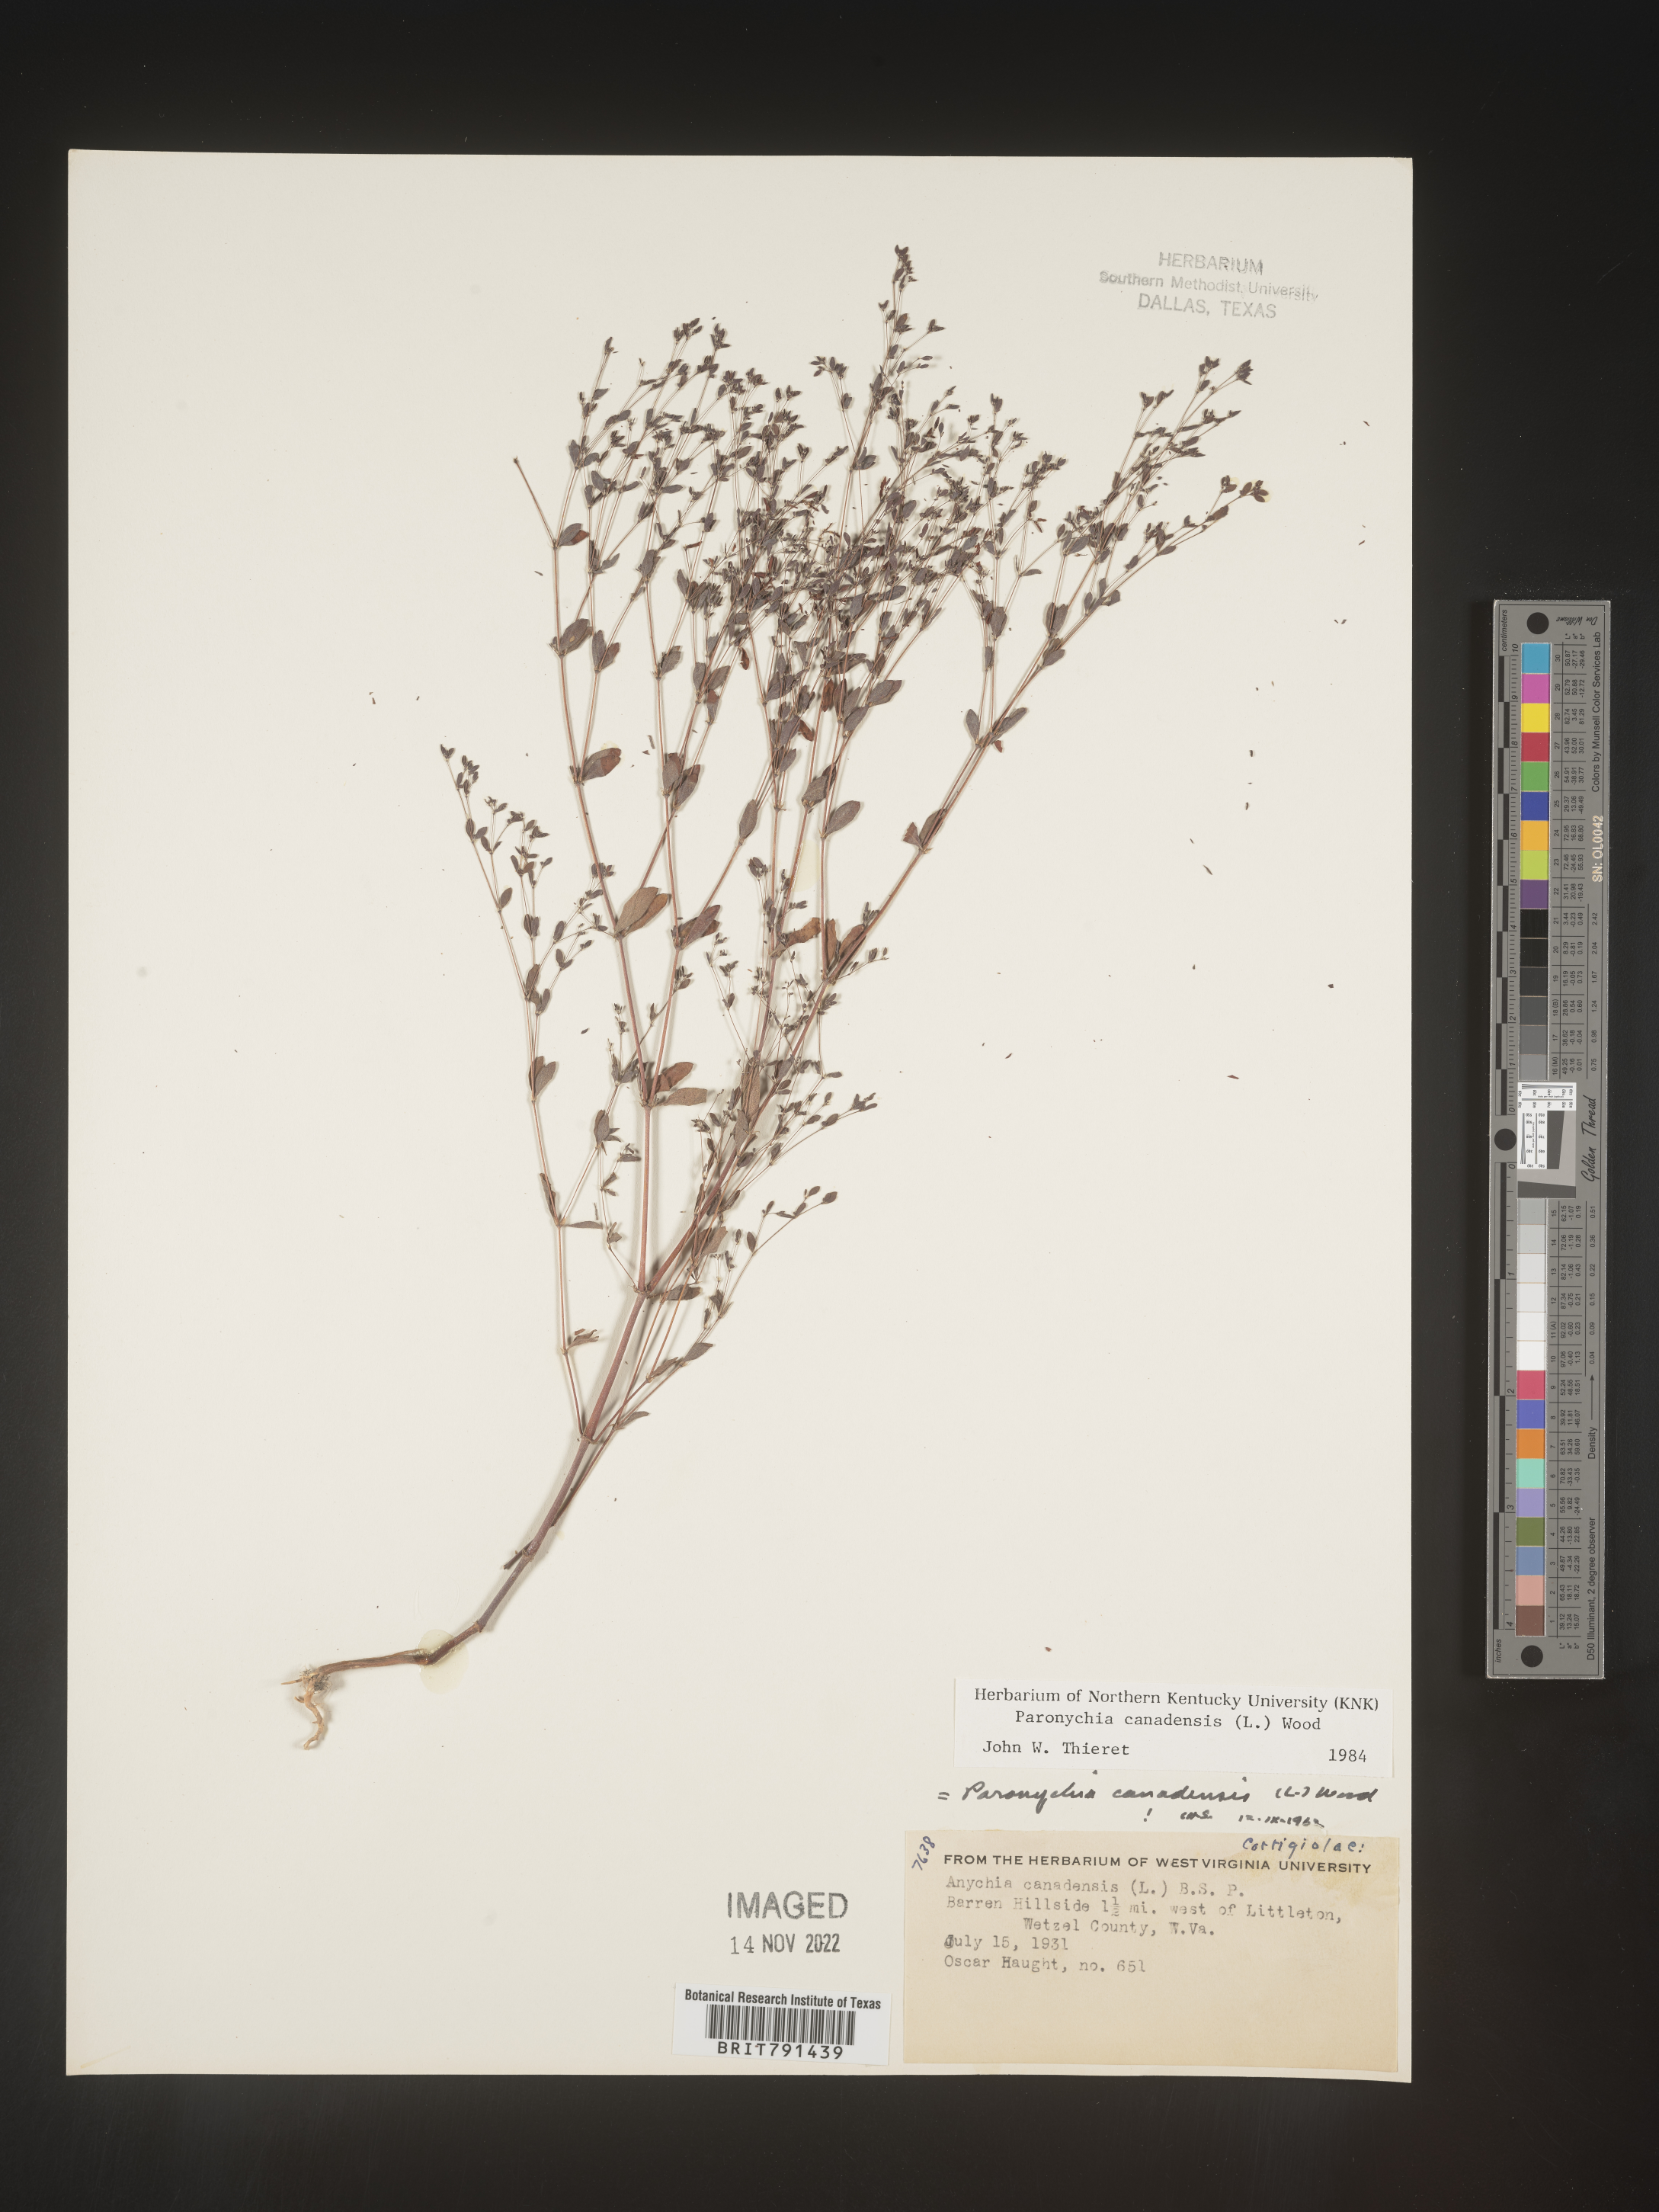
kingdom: Plantae
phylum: Tracheophyta
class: Magnoliopsida
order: Caryophyllales
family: Caryophyllaceae
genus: Paronychia
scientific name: Paronychia canadensis
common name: Canada forked nailwort
